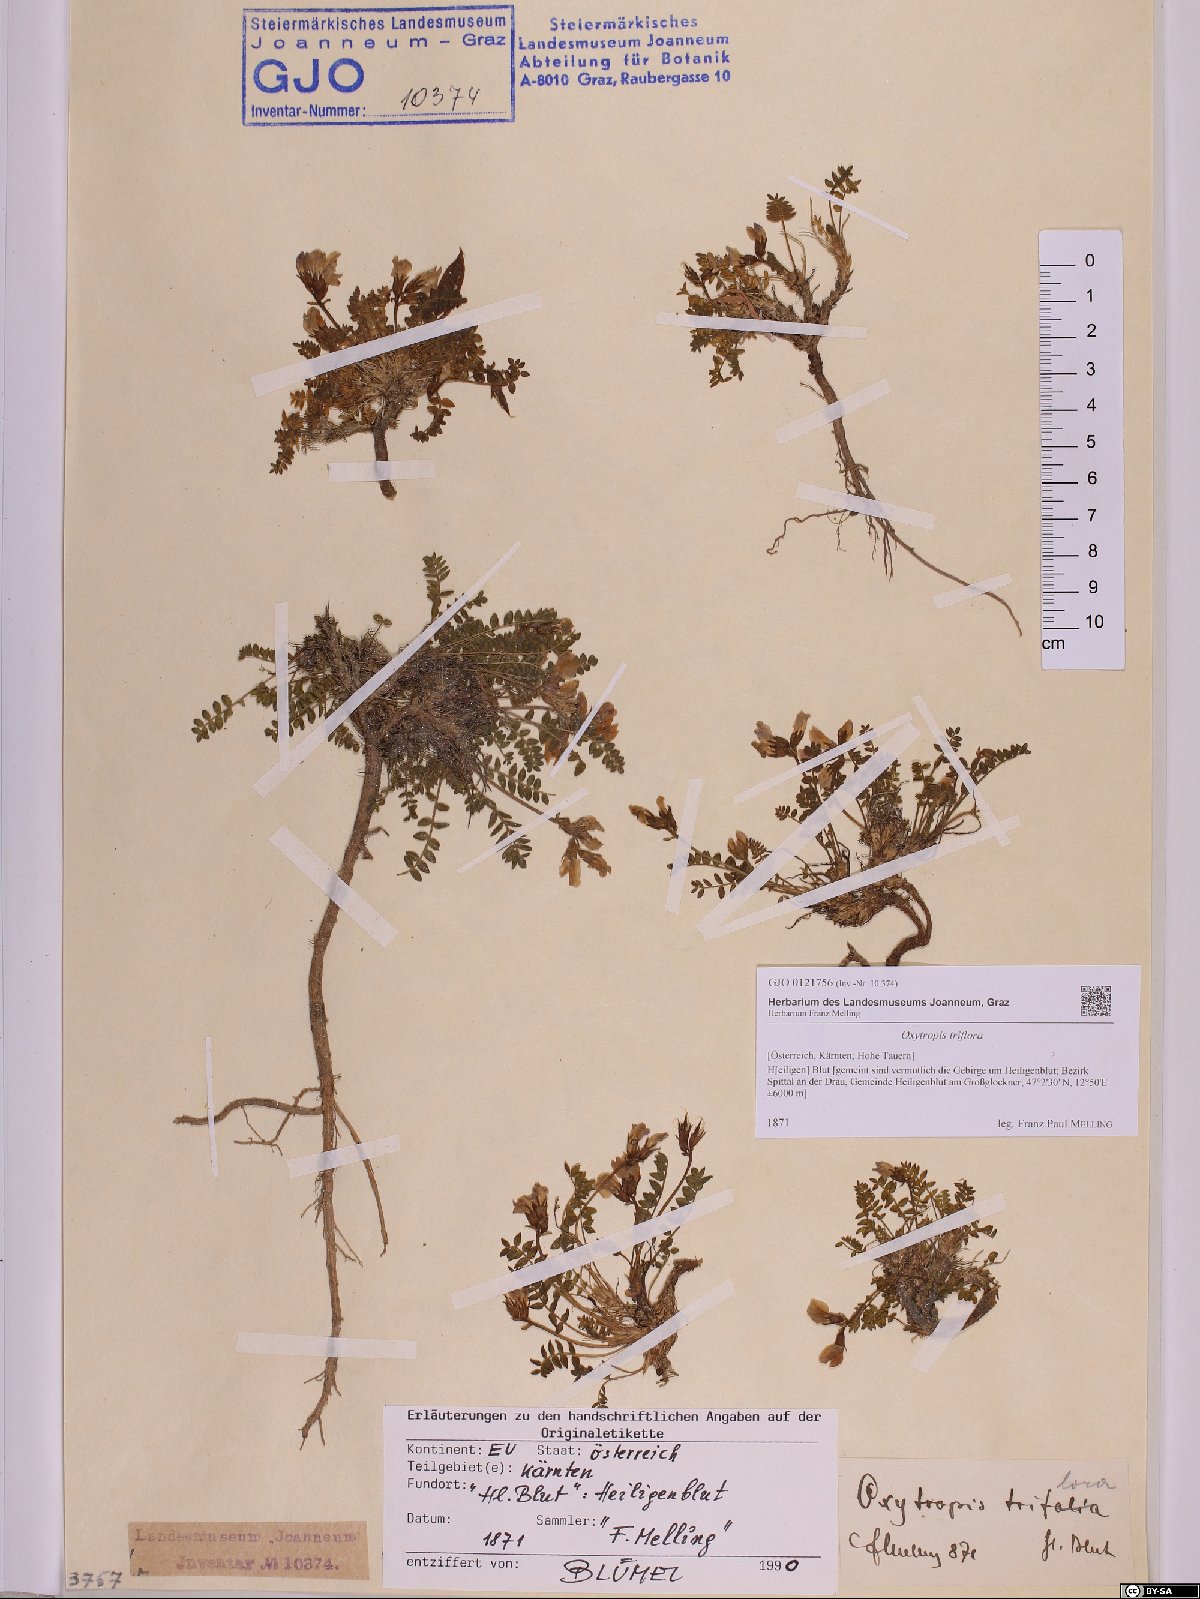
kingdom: Plantae
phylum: Tracheophyta
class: Magnoliopsida
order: Fabales
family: Fabaceae
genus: Oxytropis
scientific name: Oxytropis triflora
